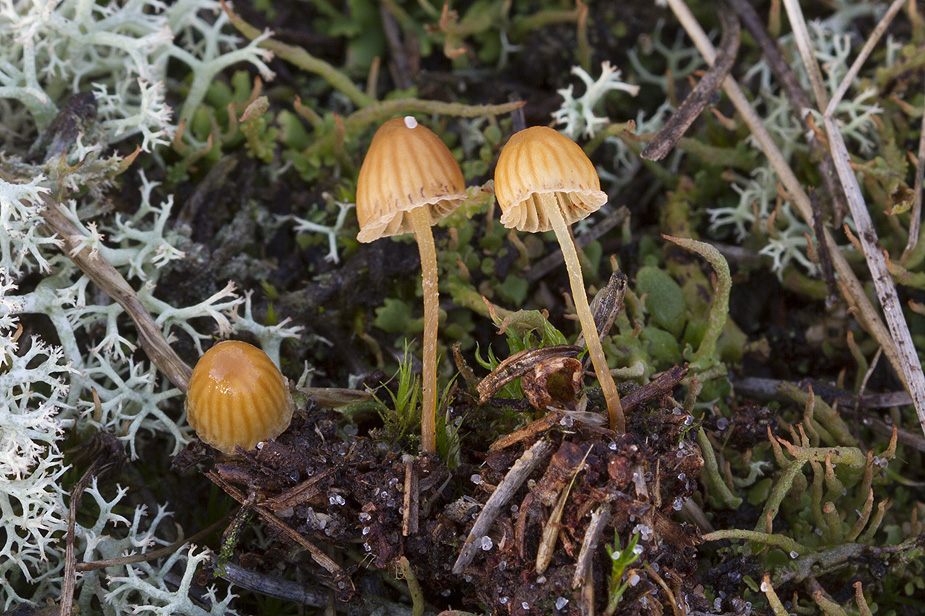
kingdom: Fungi
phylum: Basidiomycota
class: Agaricomycetes
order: Agaricales
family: Hymenogastraceae
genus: Galerina
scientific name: Galerina
